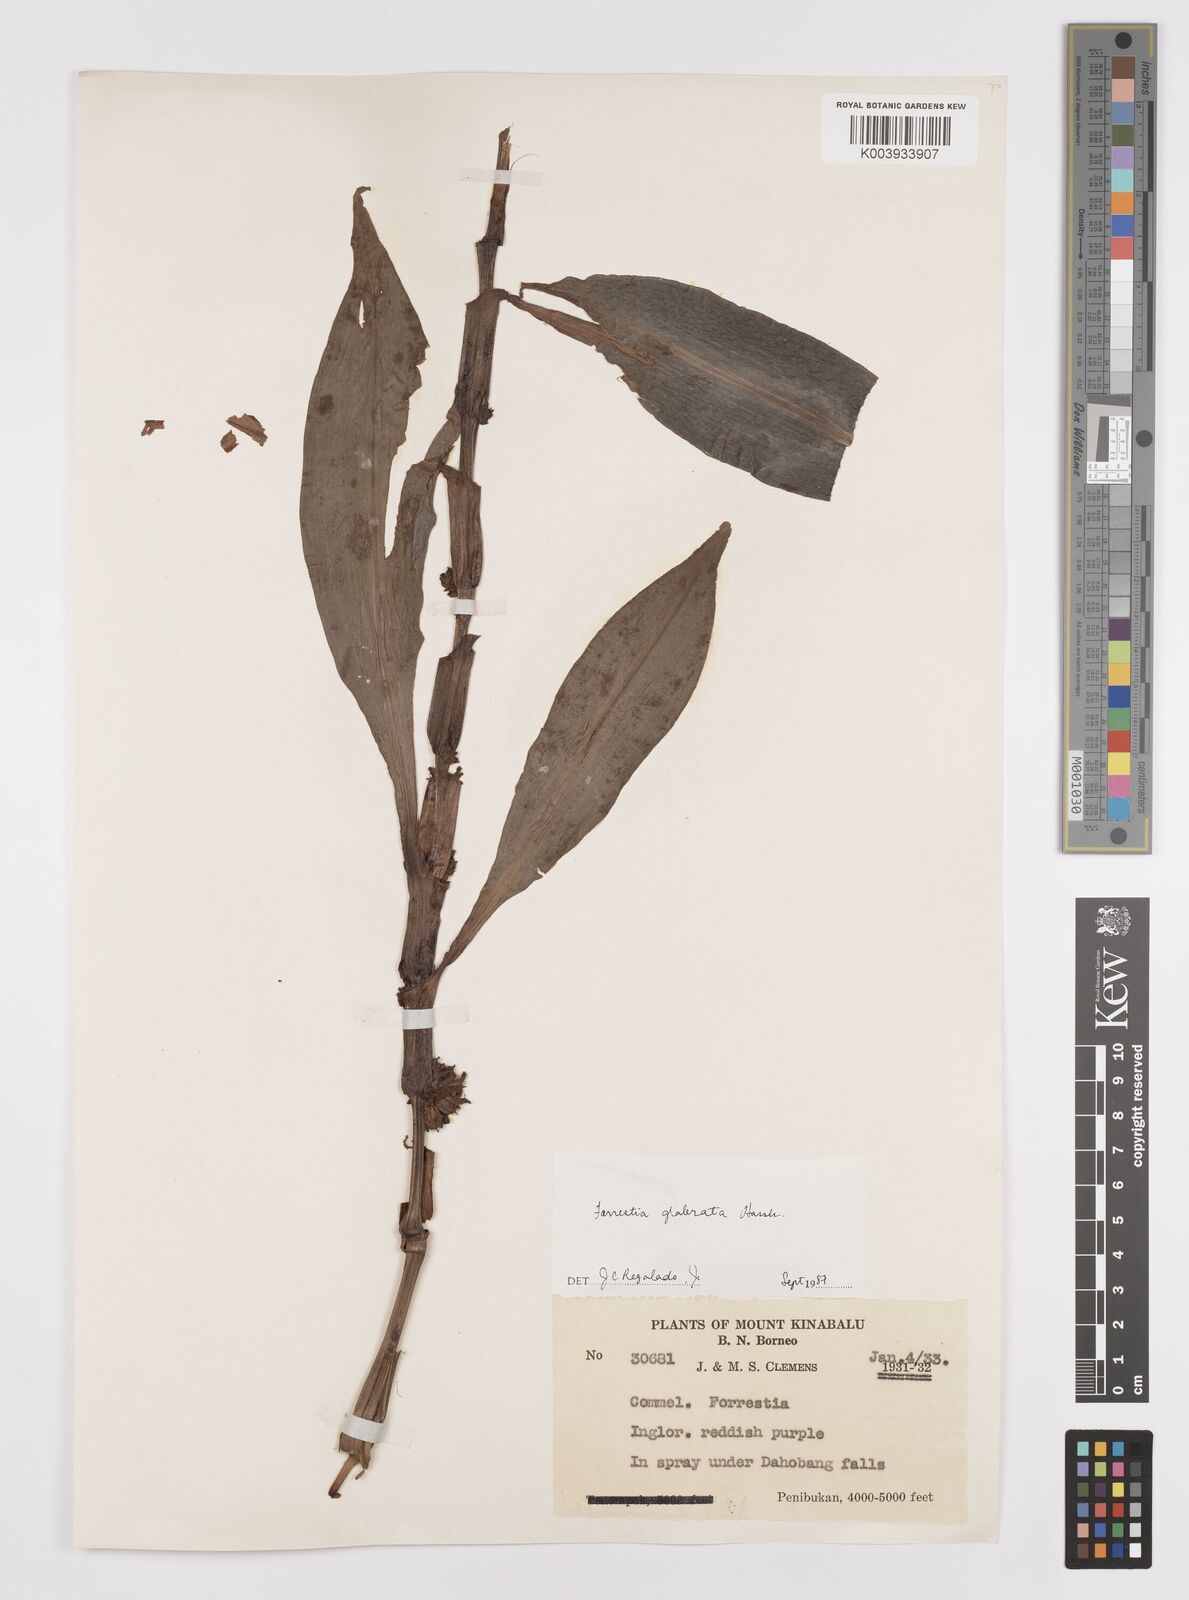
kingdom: Plantae
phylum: Tracheophyta
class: Liliopsida
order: Commelinales
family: Commelinaceae
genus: Amischotolype
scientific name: Amischotolype glabrata
